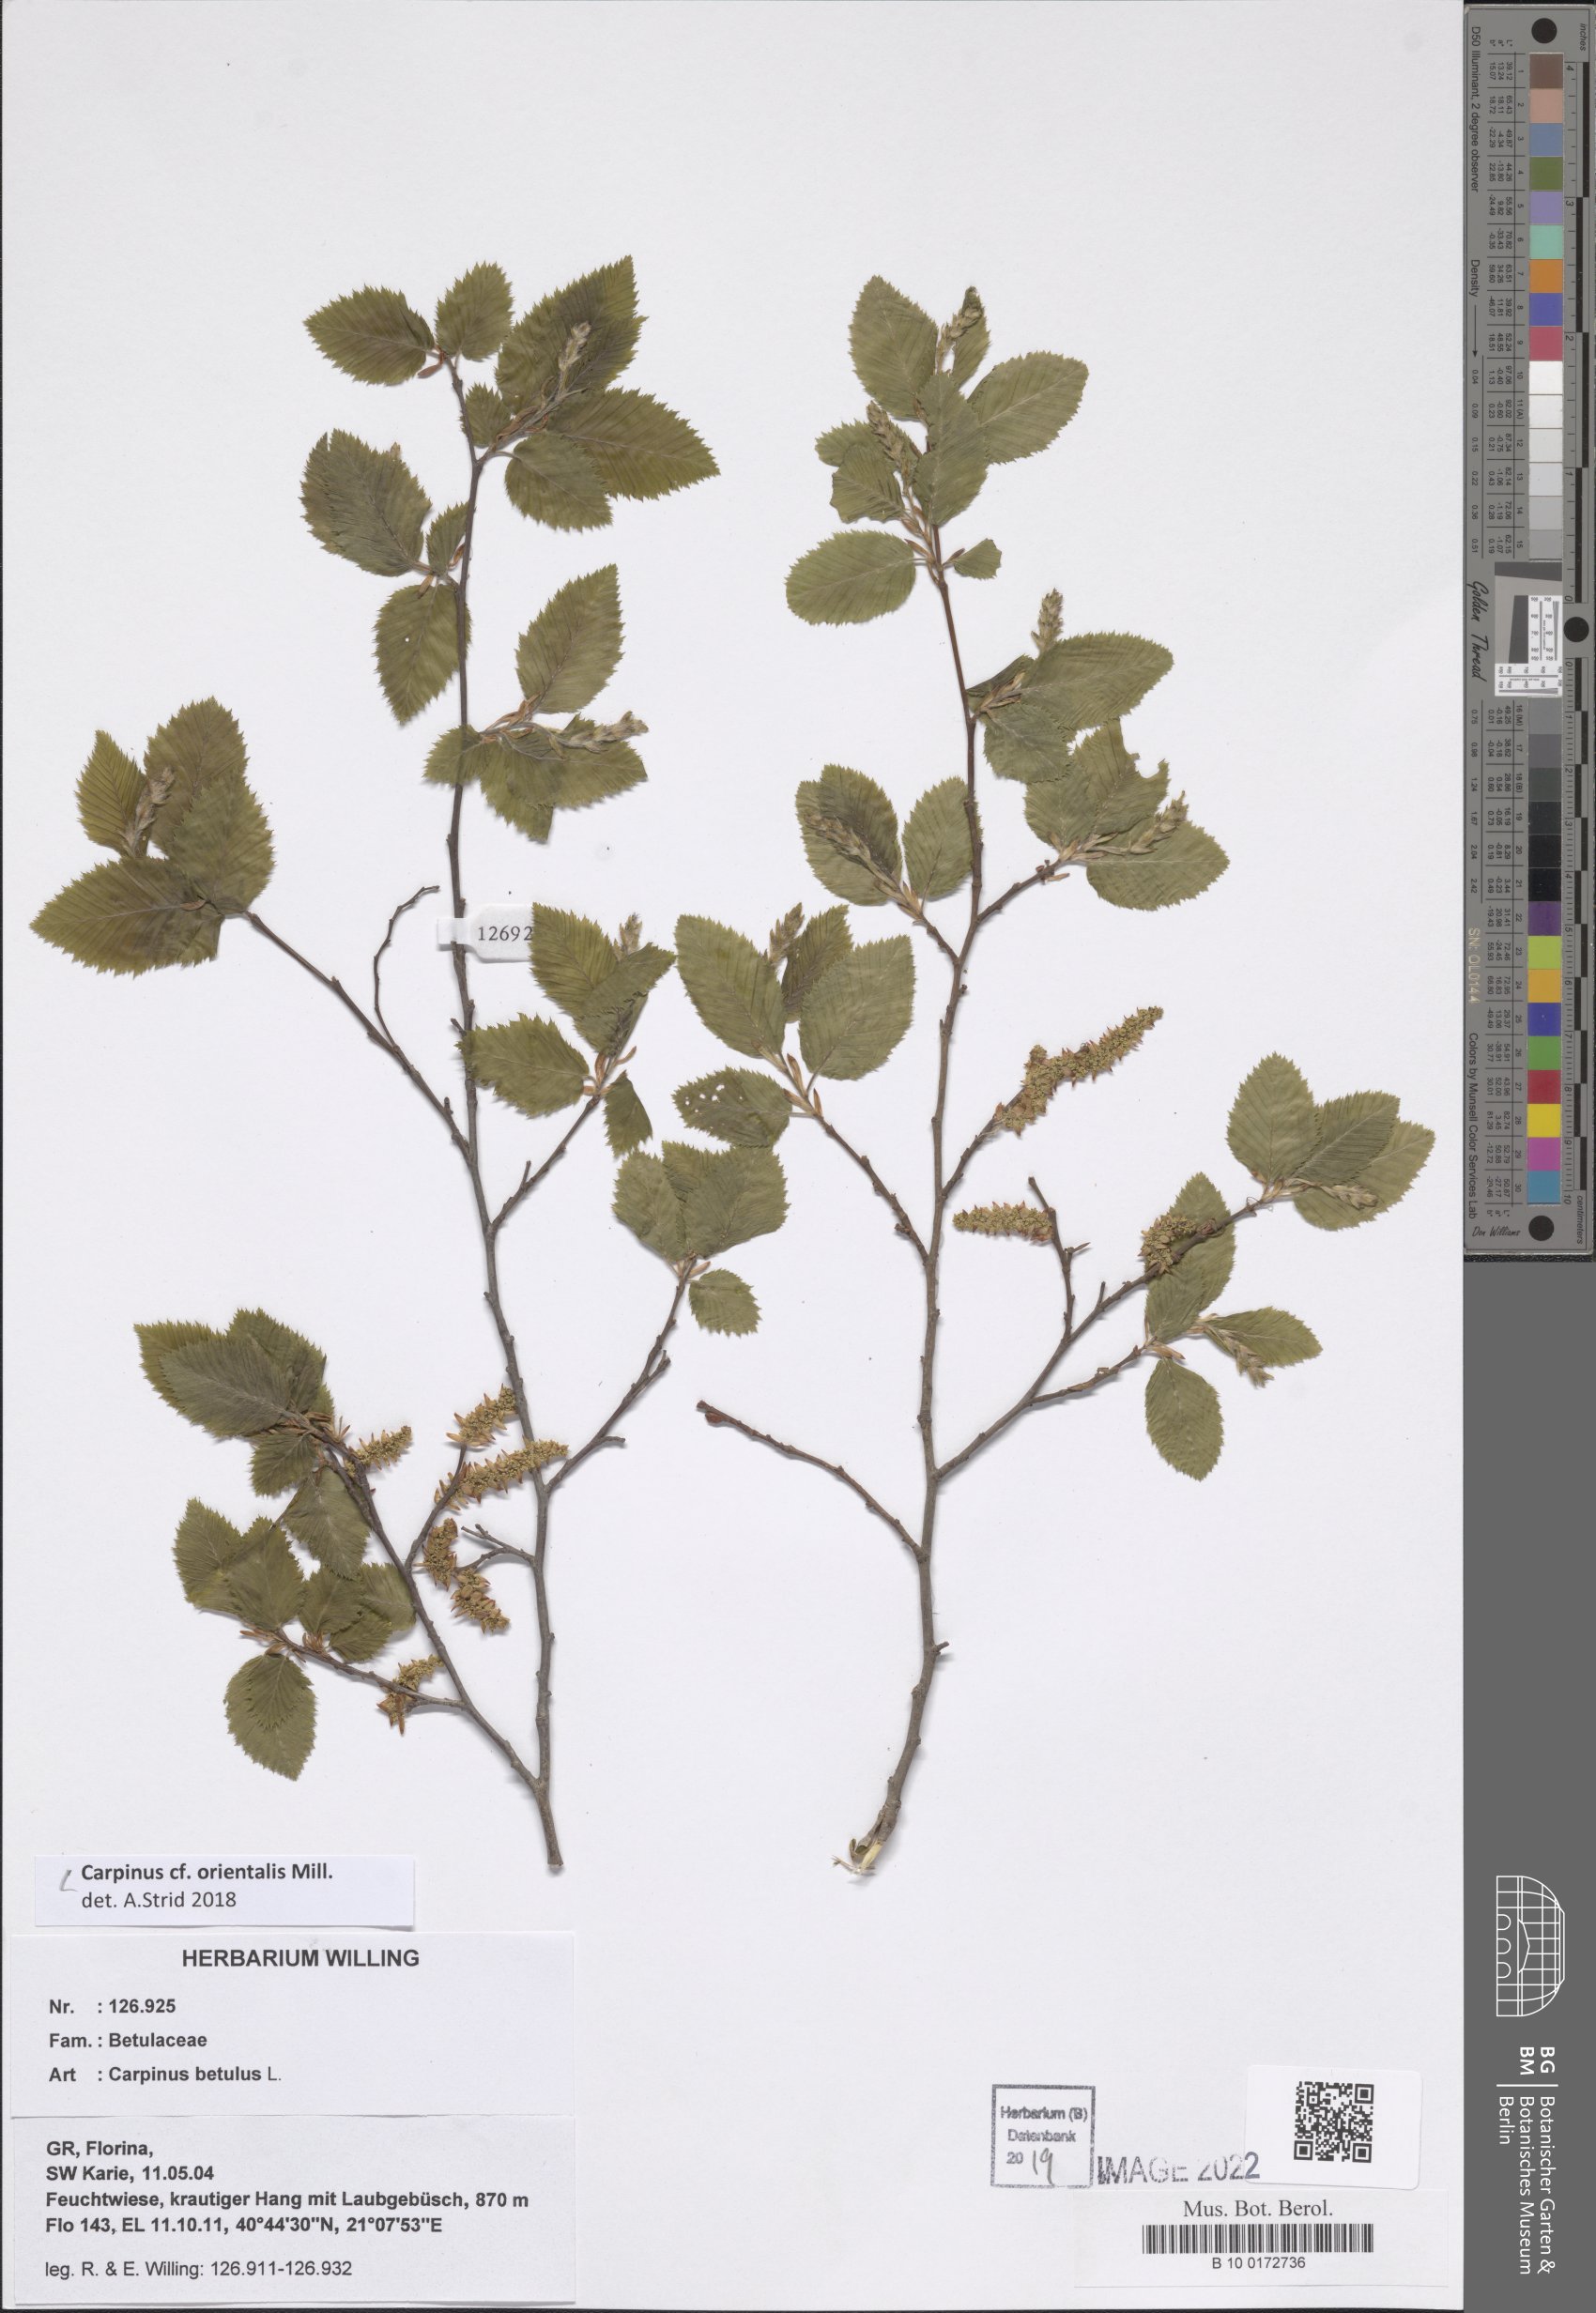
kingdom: Plantae
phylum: Tracheophyta
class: Magnoliopsida
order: Fagales
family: Betulaceae
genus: Carpinus
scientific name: Carpinus orientalis
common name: Eastern hornbeam
